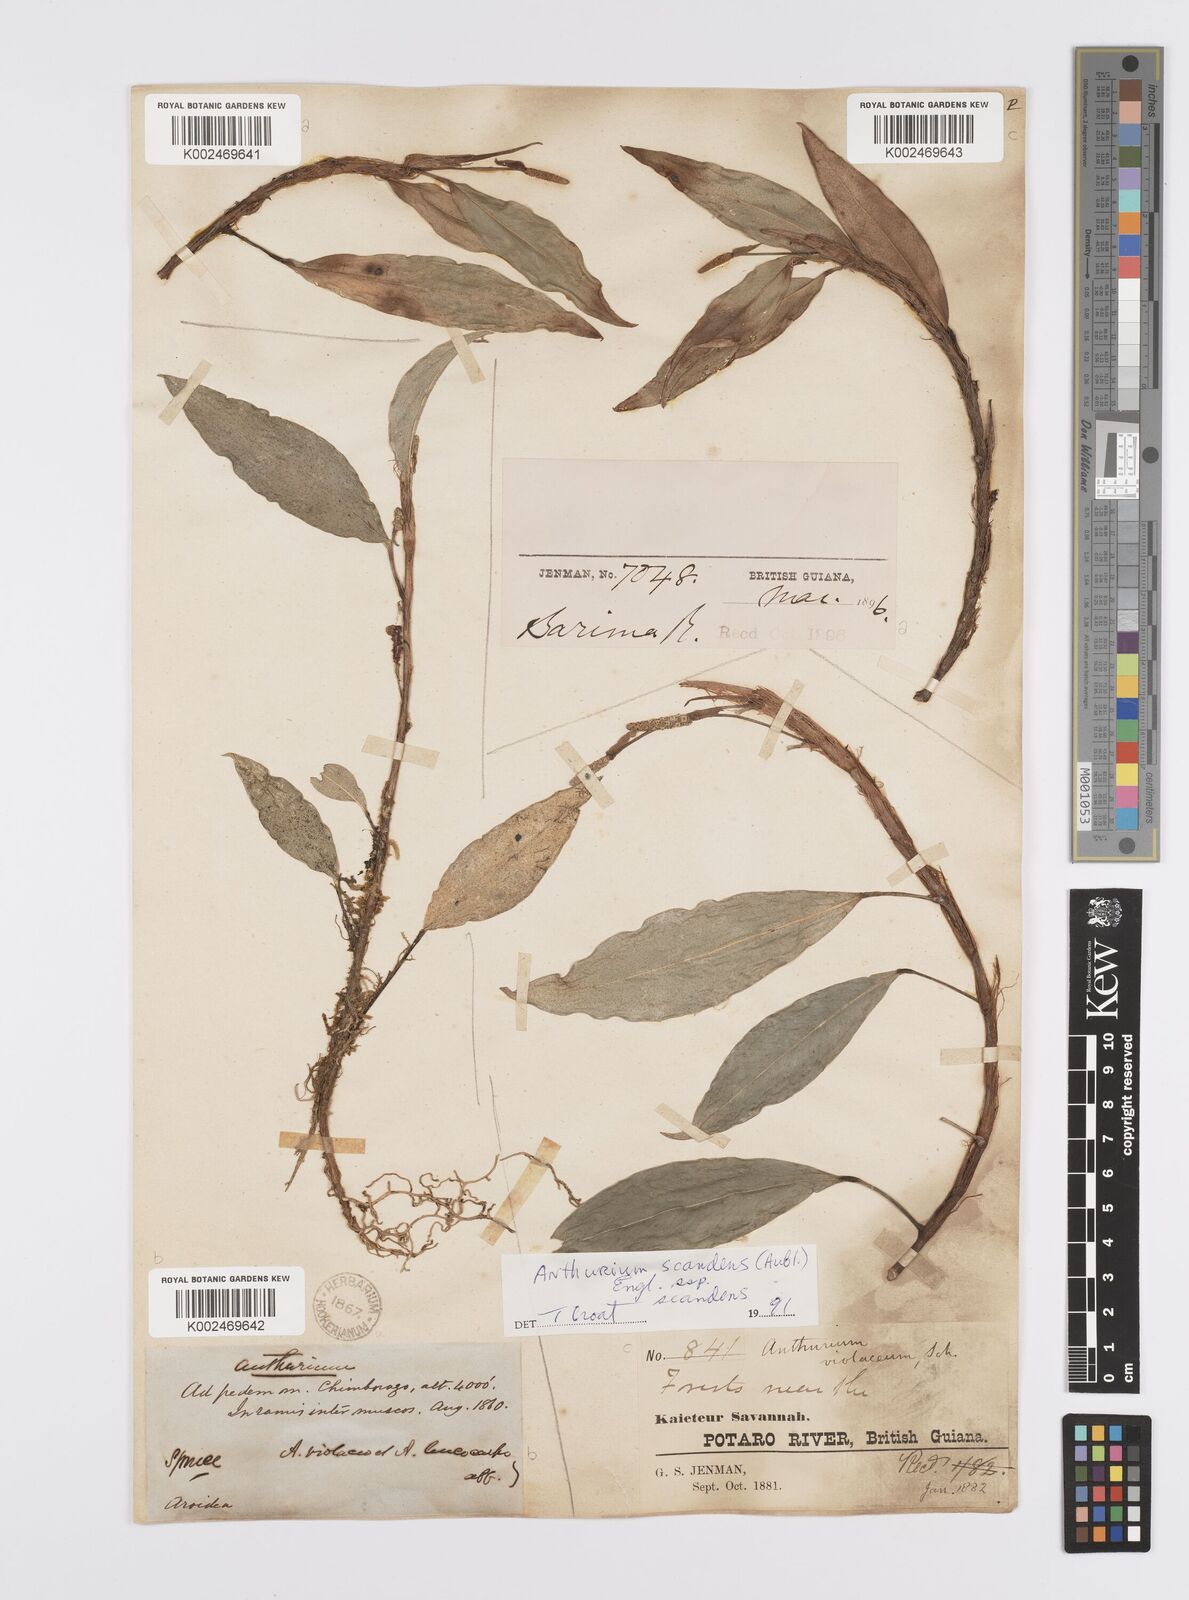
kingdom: Plantae
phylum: Tracheophyta
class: Liliopsida
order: Alismatales
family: Araceae
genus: Anthurium
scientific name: Anthurium scandens
